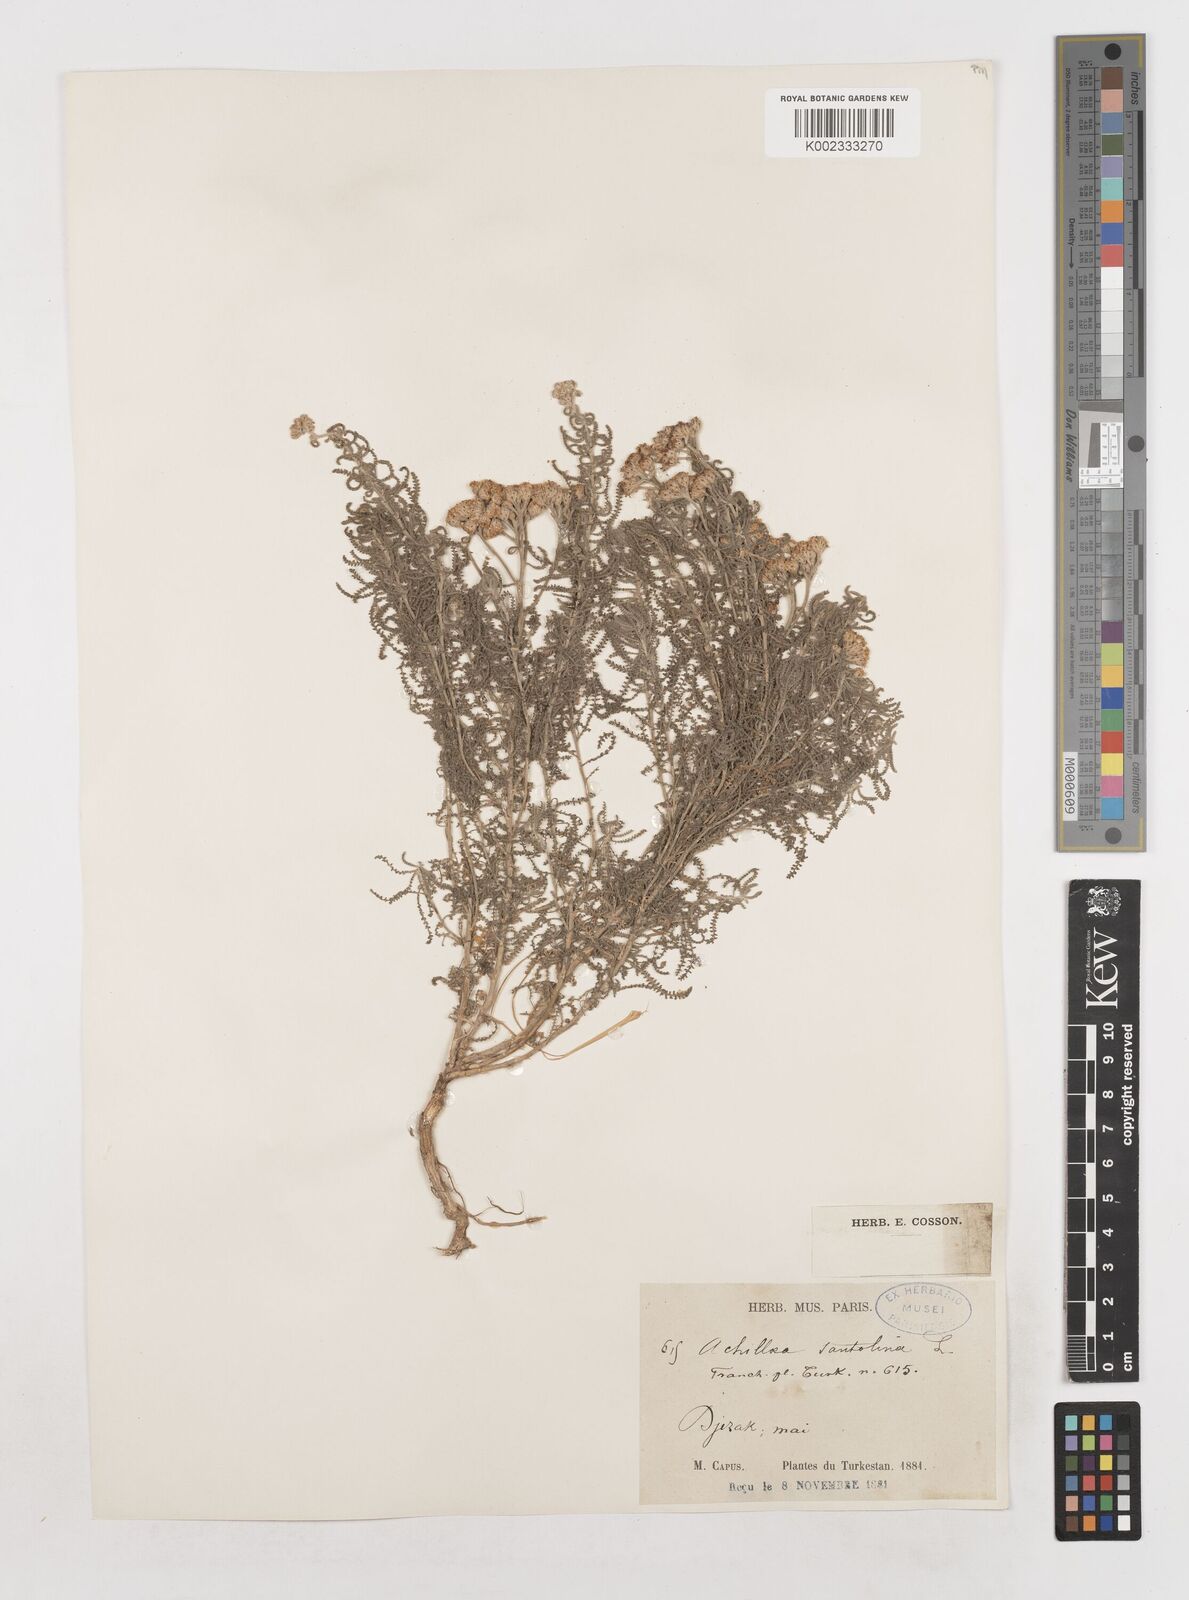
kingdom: Plantae
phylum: Tracheophyta
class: Magnoliopsida
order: Asterales
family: Asteraceae
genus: Achillea
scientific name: Achillea tenuifolia
